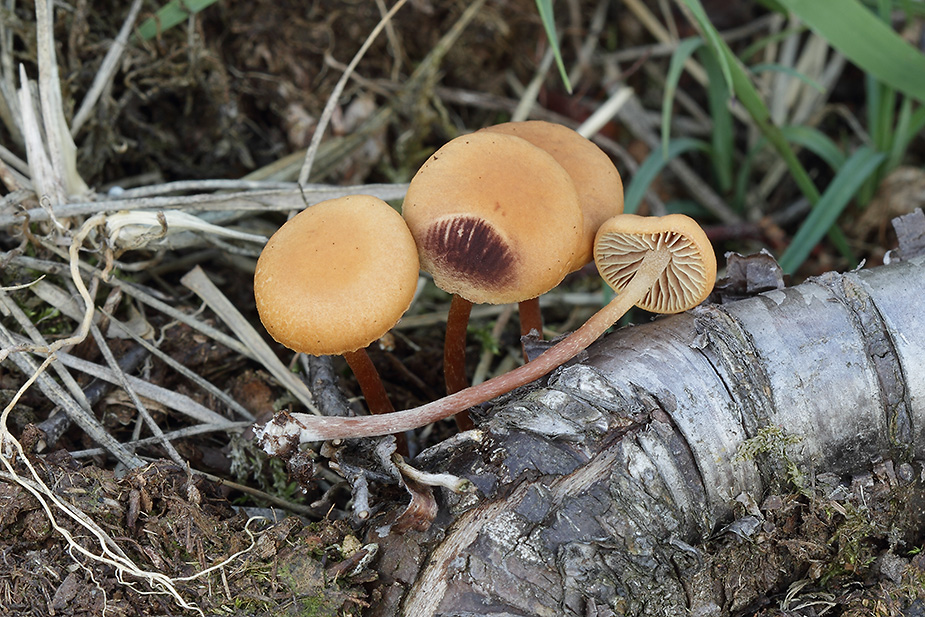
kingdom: Fungi
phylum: Basidiomycota
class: Agaricomycetes
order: Agaricales
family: Strophariaceae
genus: Bogbodia
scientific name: Bogbodia uda
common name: tørve-svovlhat
